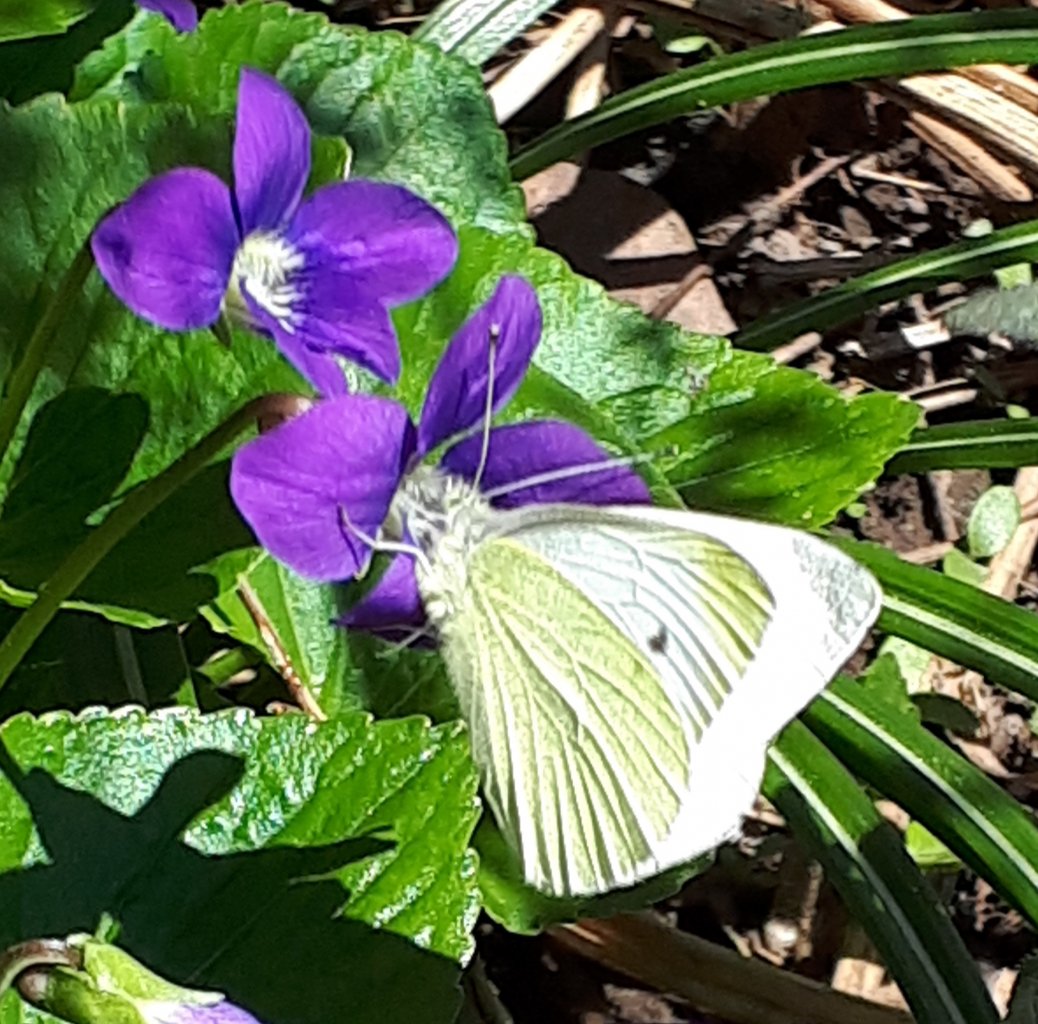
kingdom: Animalia
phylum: Arthropoda
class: Insecta
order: Lepidoptera
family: Pieridae
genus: Pieris
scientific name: Pieris rapae
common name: Cabbage White
